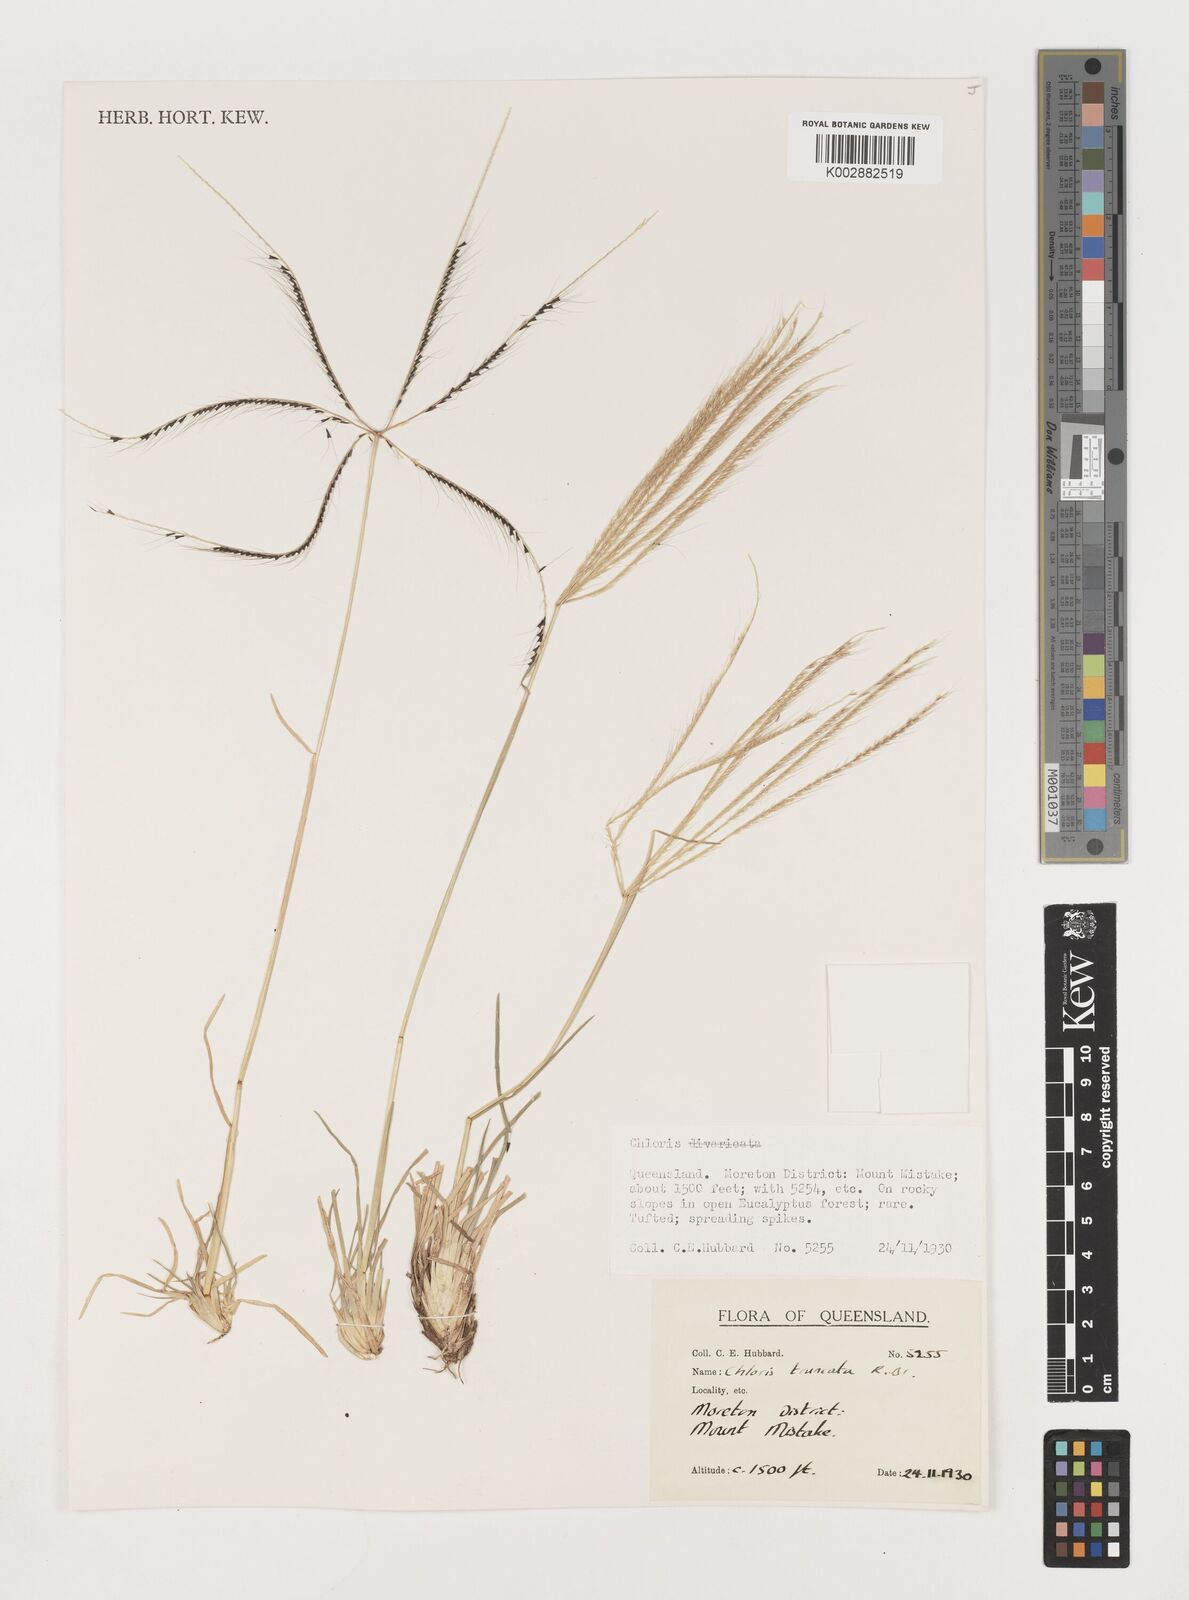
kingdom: Plantae
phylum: Tracheophyta
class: Liliopsida
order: Poales
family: Poaceae
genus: Chloris
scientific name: Chloris truncata
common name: Windmill-grass
